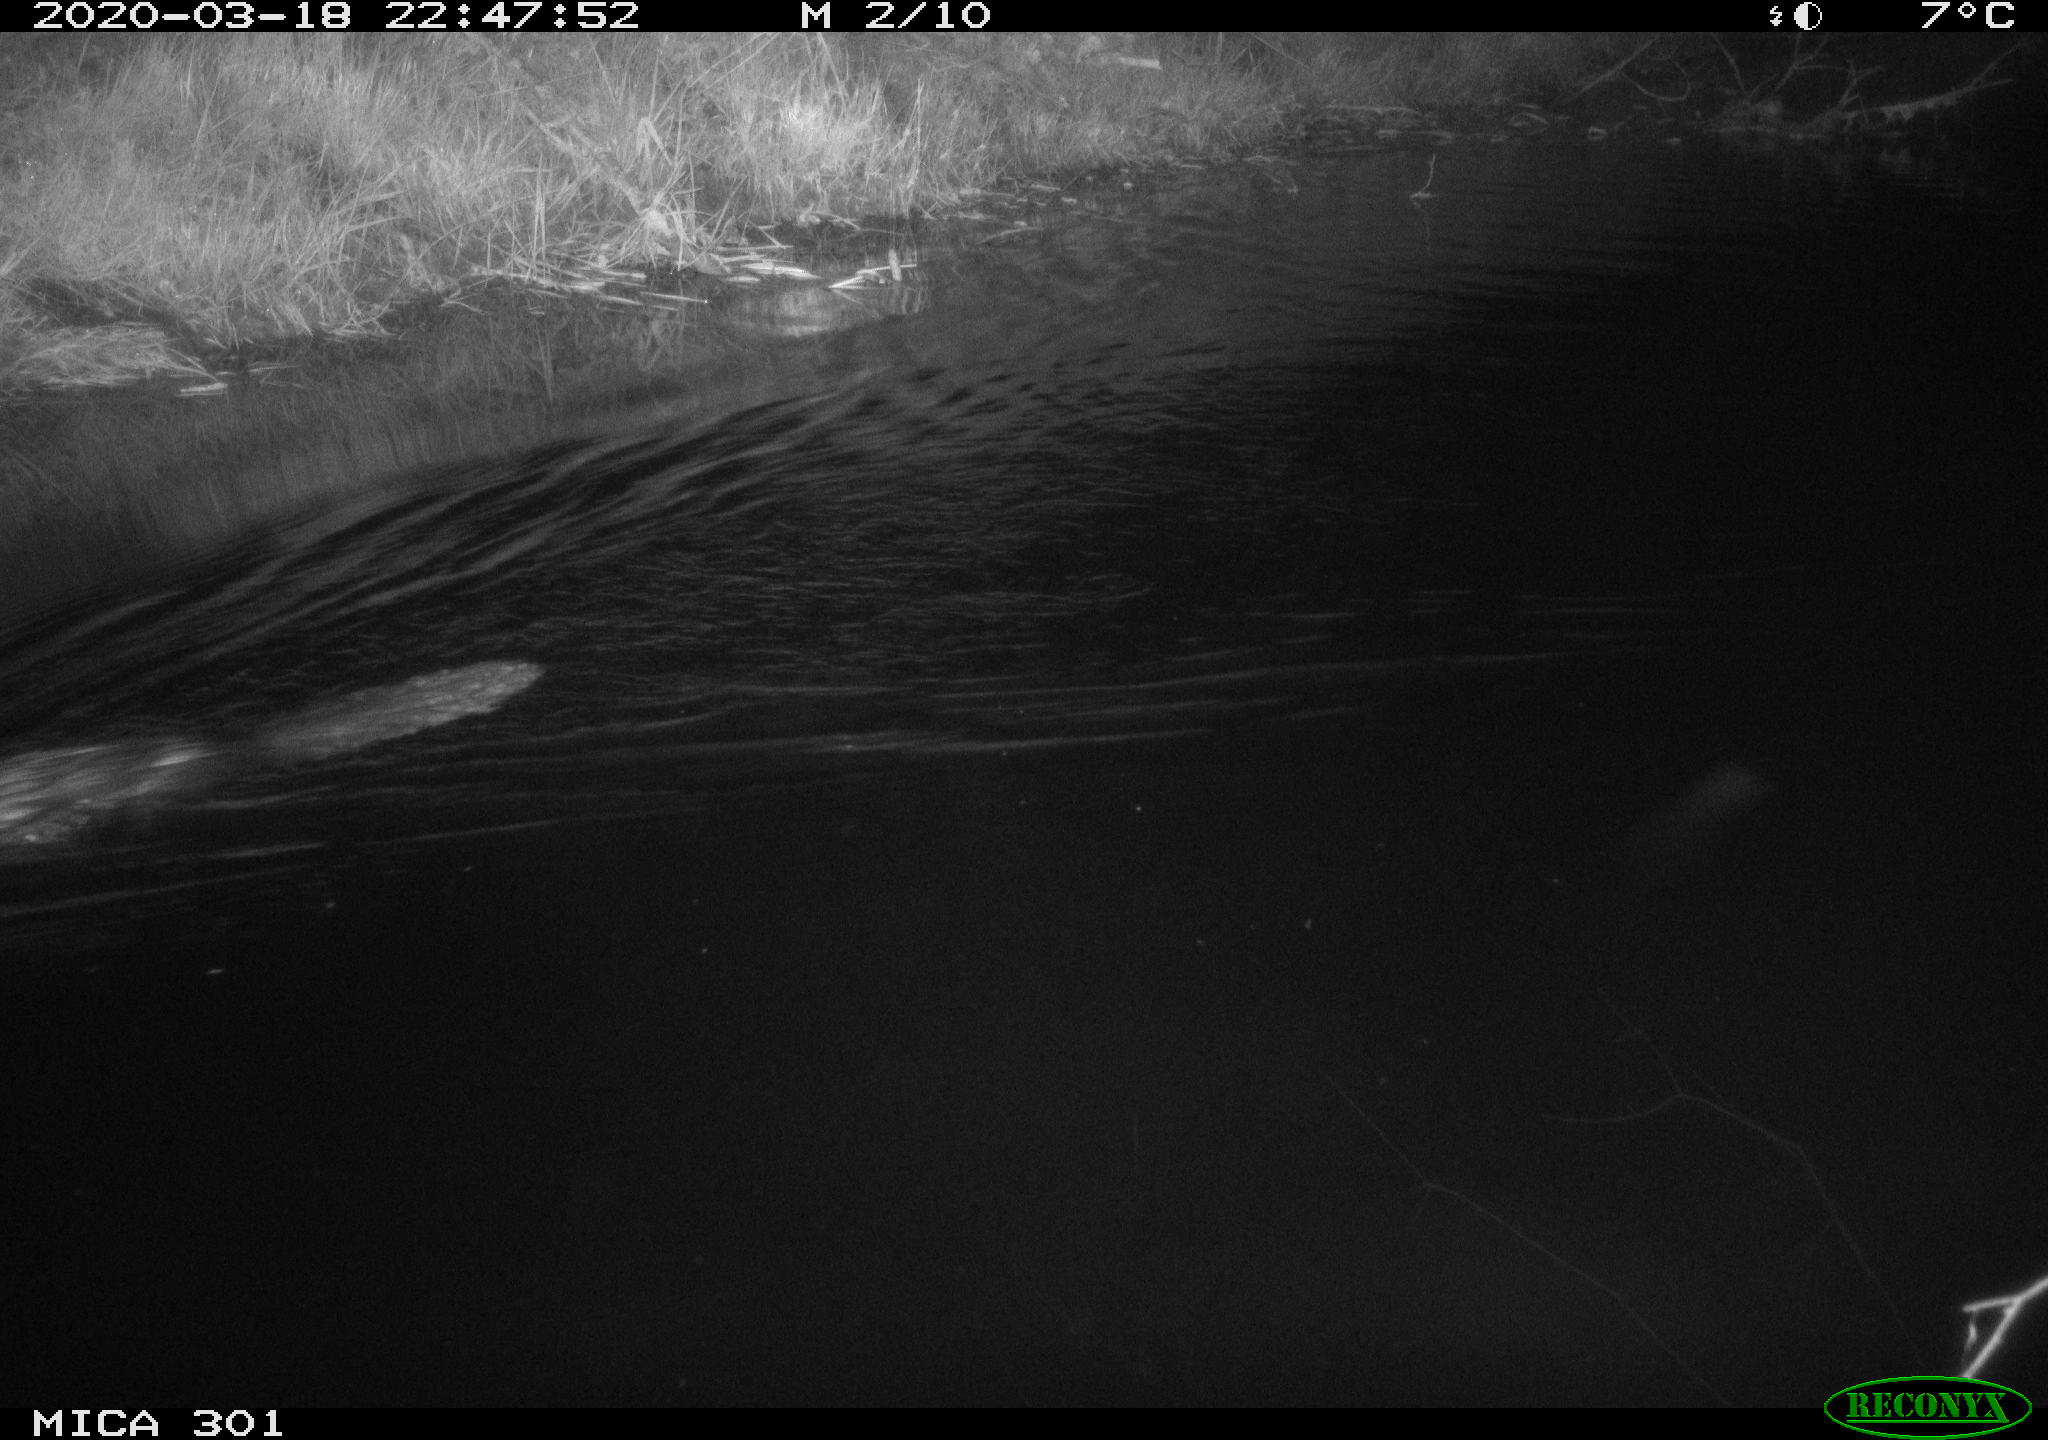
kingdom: Animalia
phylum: Chordata
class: Mammalia
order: Rodentia
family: Castoridae
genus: Castor
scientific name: Castor fiber
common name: Eurasian beaver
